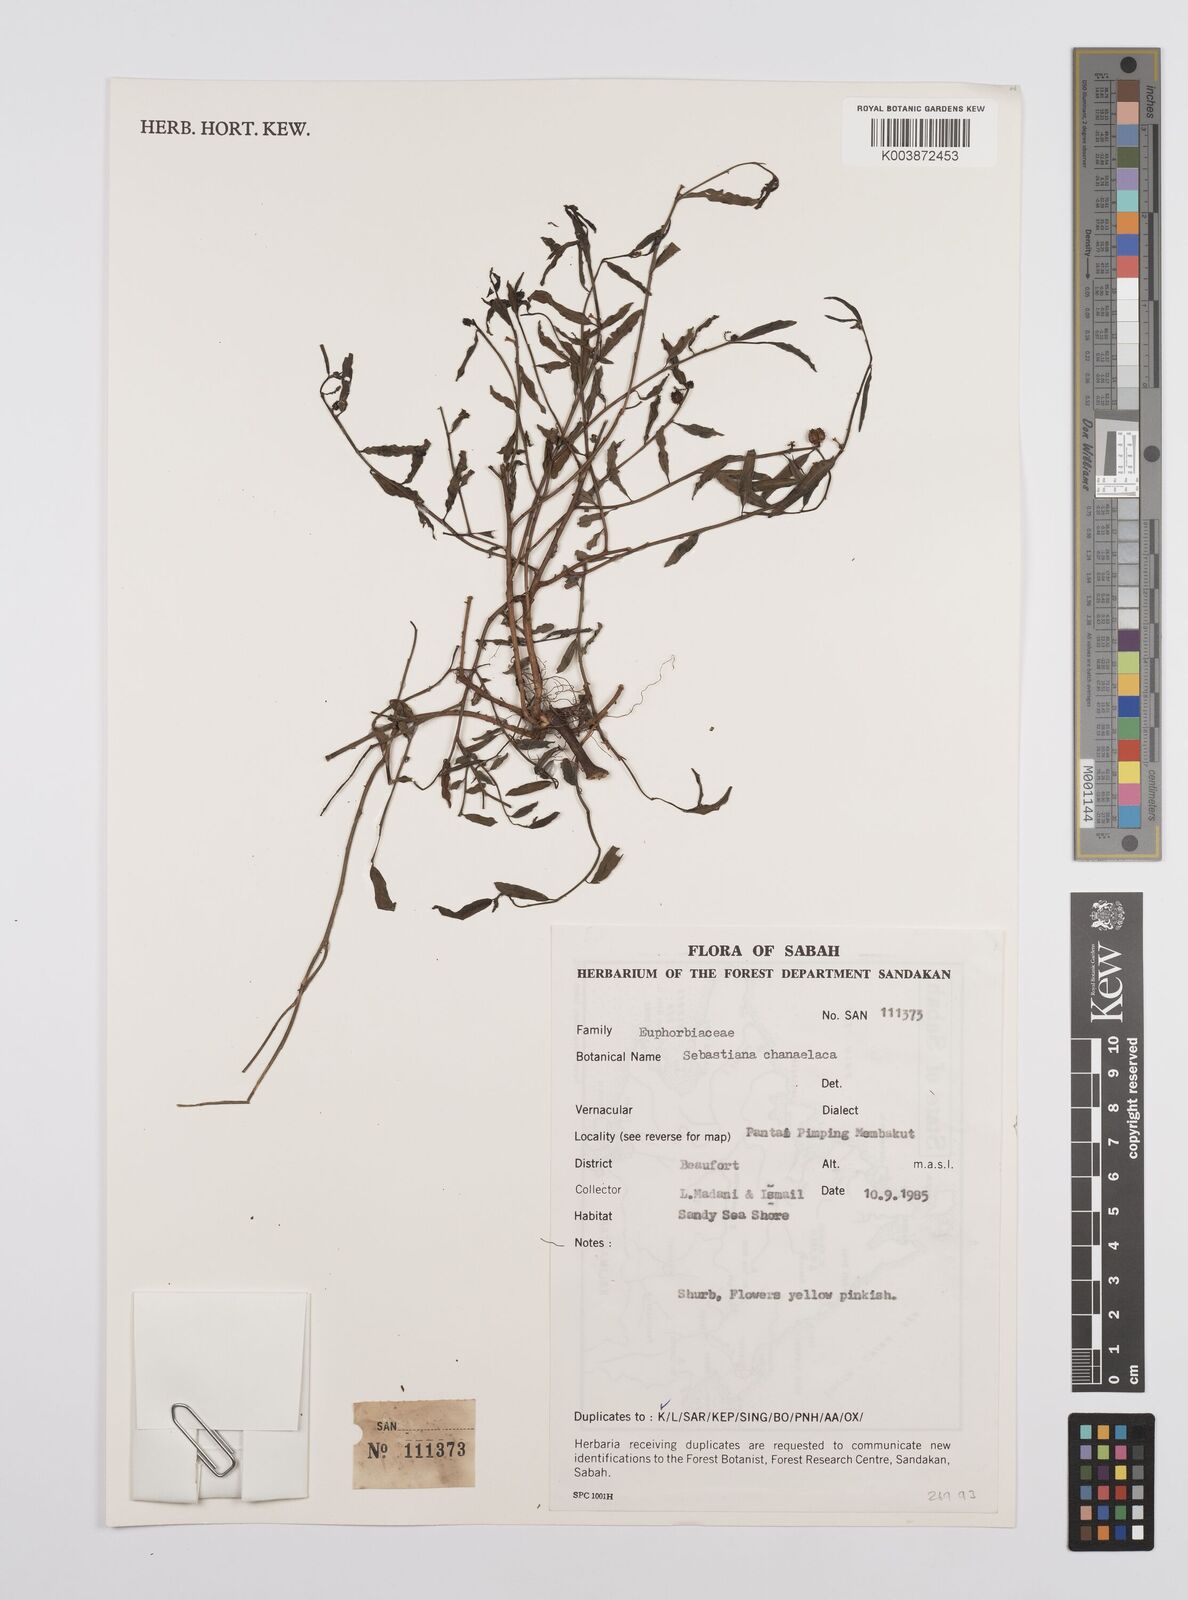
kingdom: Plantae
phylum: Tracheophyta
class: Magnoliopsida
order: Malpighiales
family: Euphorbiaceae
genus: Microstachys
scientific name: Microstachys chamaelea
